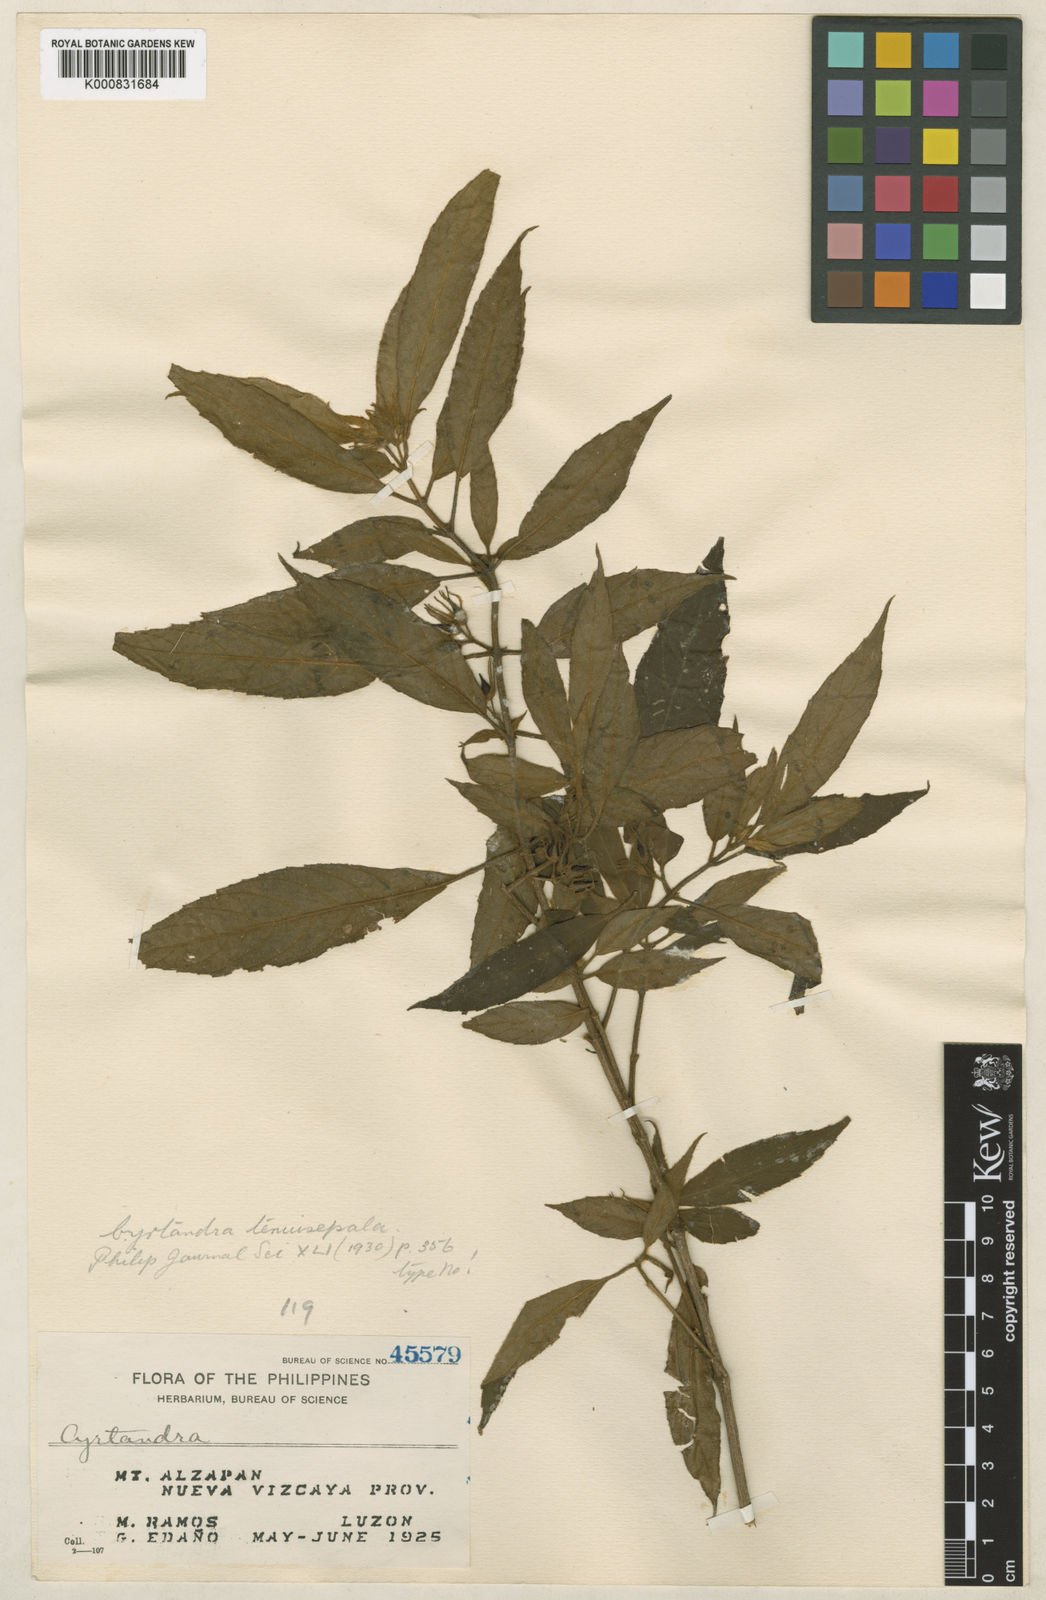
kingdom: Plantae
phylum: Tracheophyta
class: Magnoliopsida
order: Lamiales
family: Gesneriaceae
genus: Cyrtandra
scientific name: Cyrtandra tenuisepala
